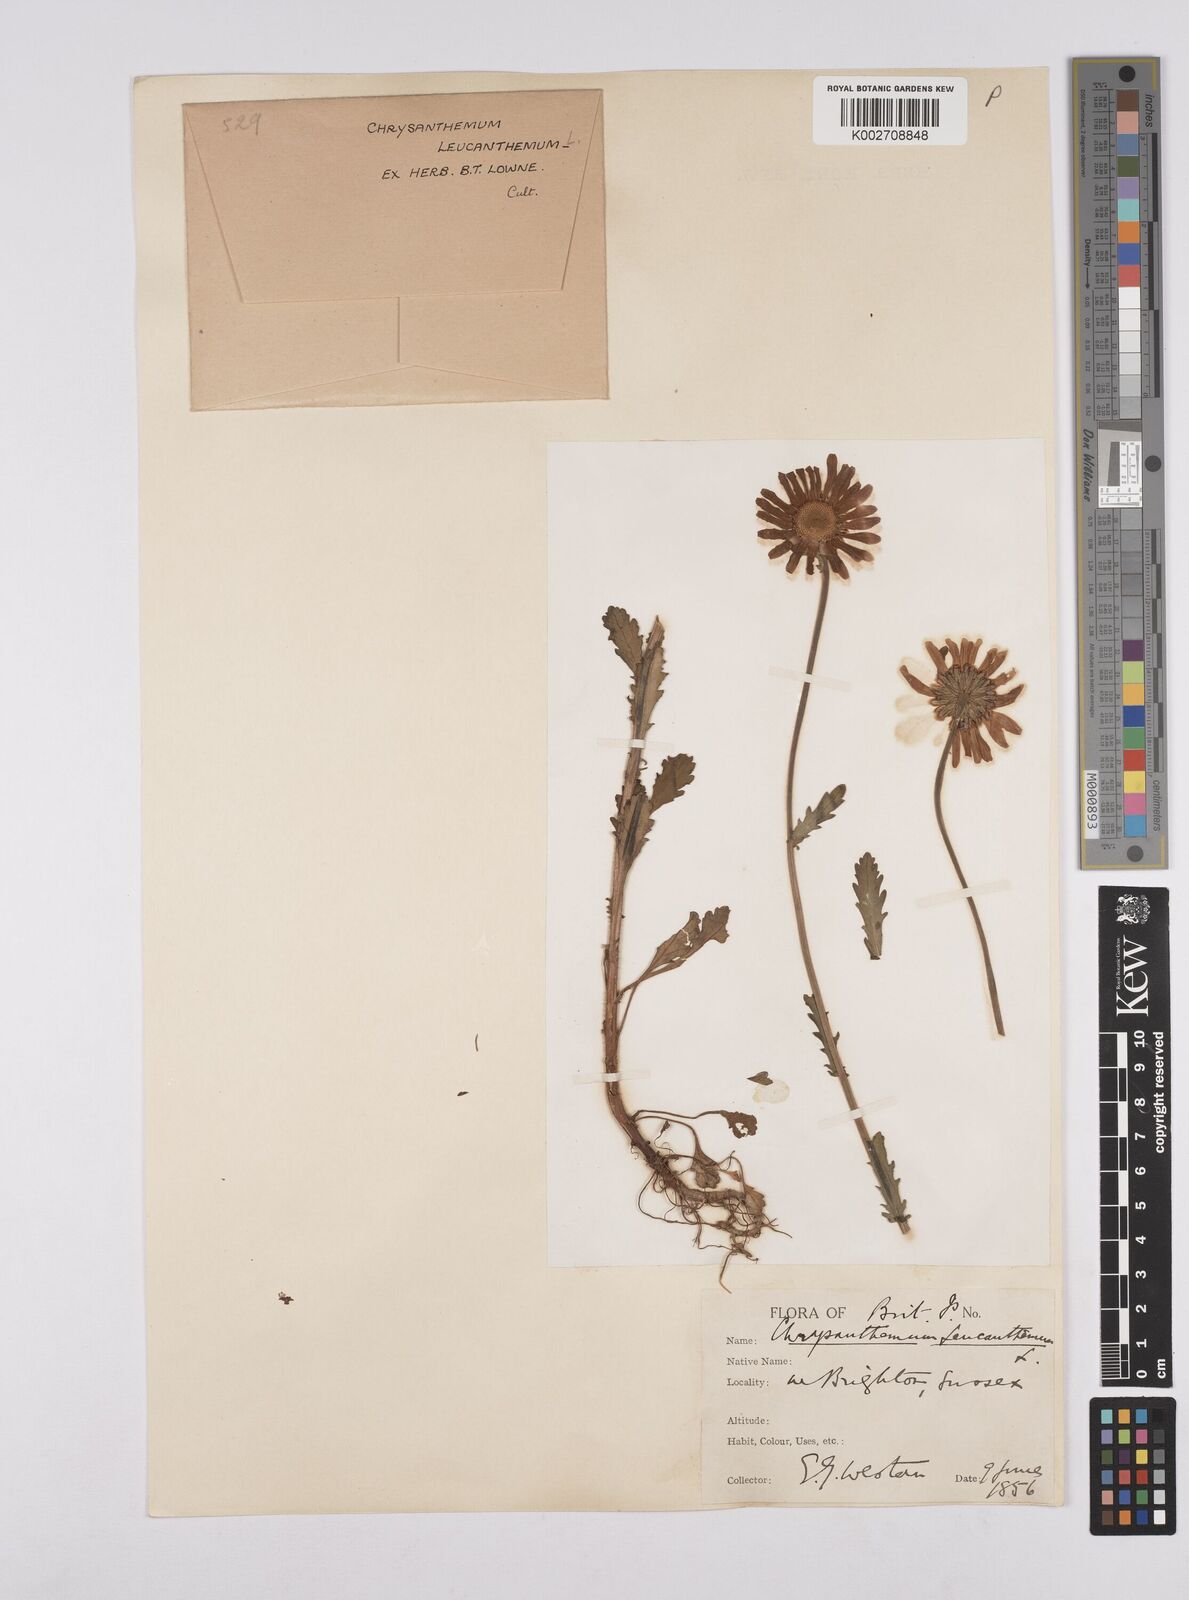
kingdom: Plantae
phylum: Tracheophyta
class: Magnoliopsida
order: Asterales
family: Asteraceae
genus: Leucanthemum
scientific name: Leucanthemum
